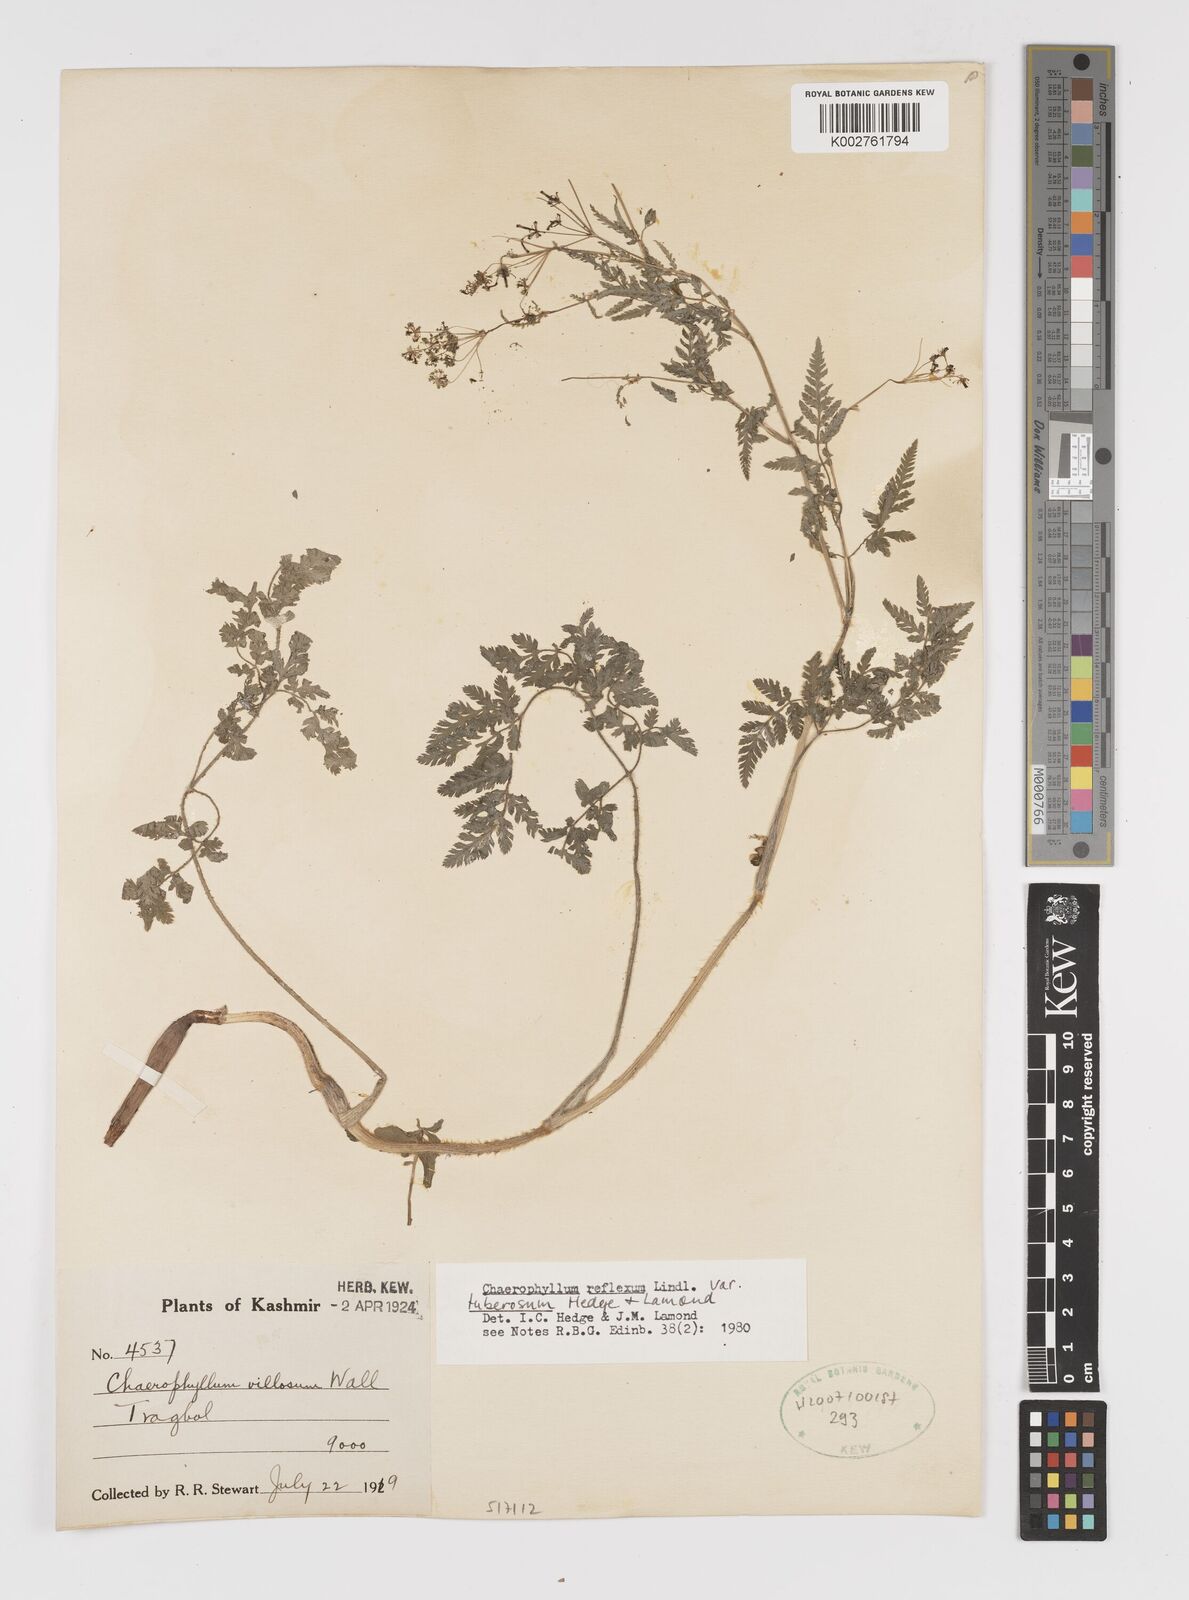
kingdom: Plantae
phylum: Tracheophyta
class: Magnoliopsida
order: Apiales
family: Apiaceae
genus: Chaerophyllum
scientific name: Chaerophyllum reflexum
